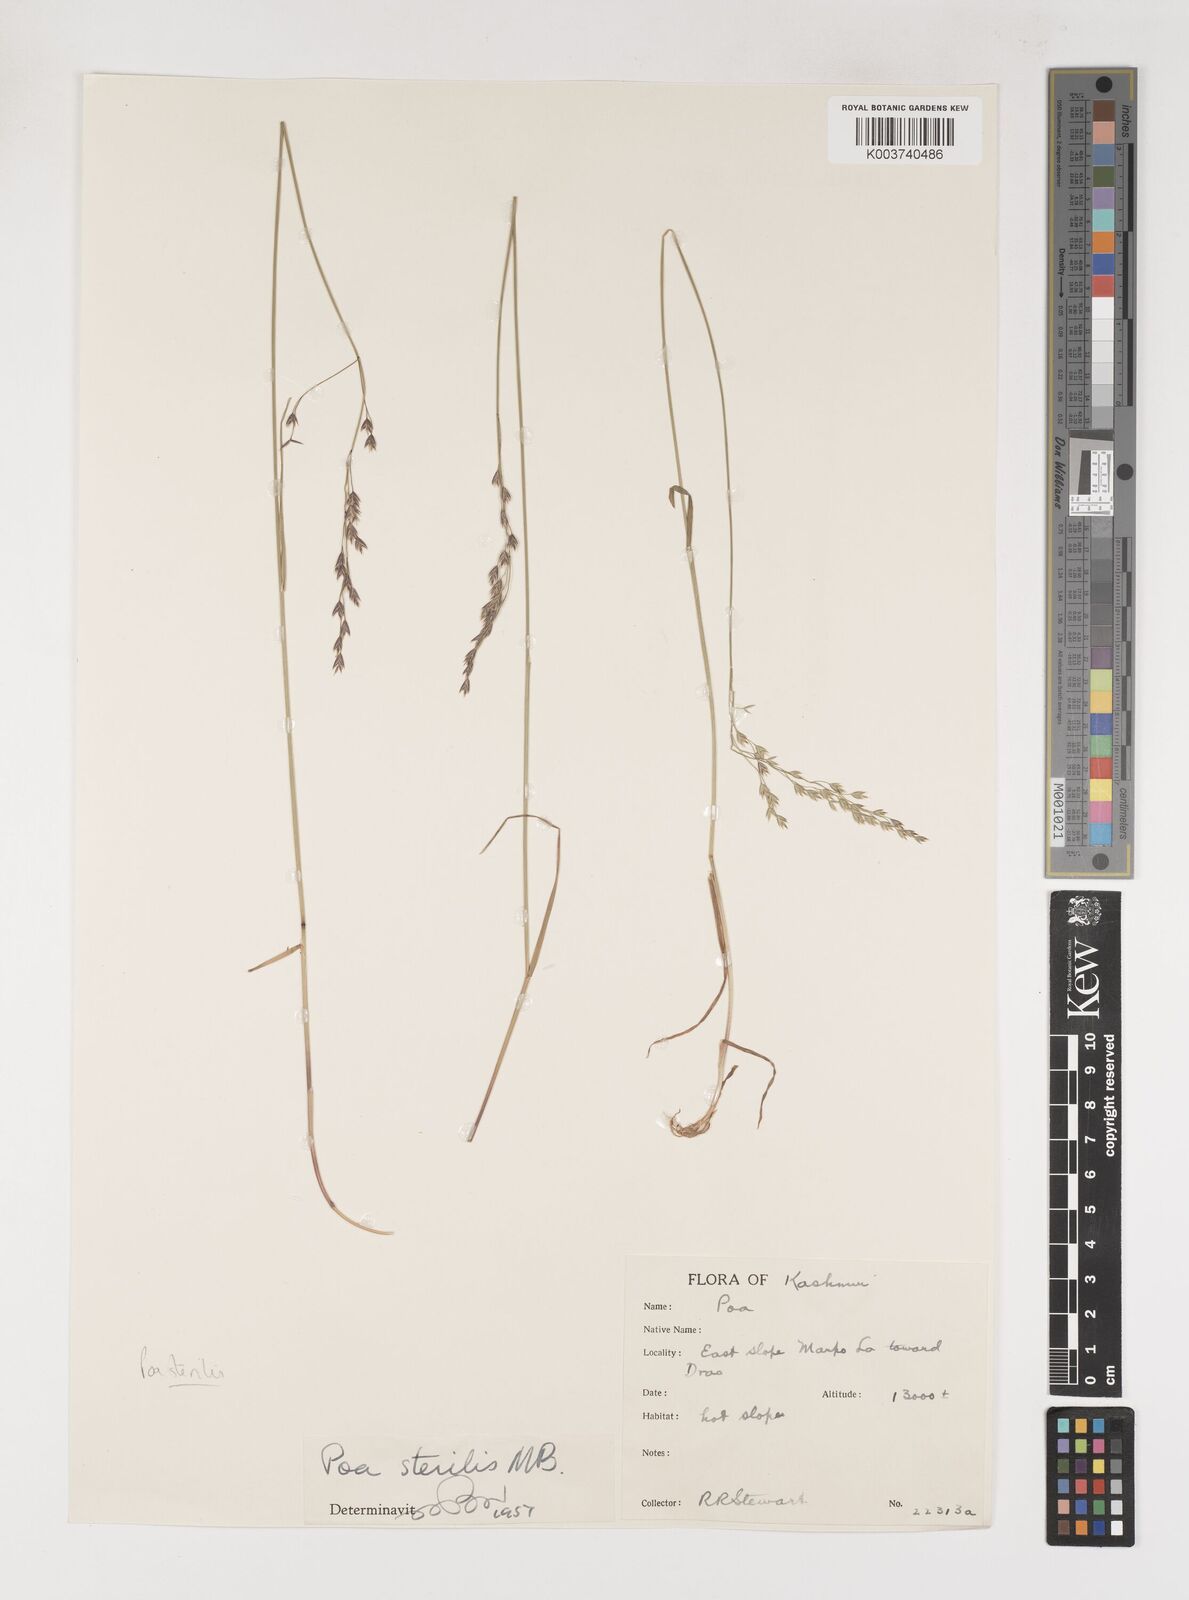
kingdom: Plantae
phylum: Tracheophyta
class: Liliopsida
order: Poales
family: Poaceae
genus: Poa
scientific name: Poa sterilis
